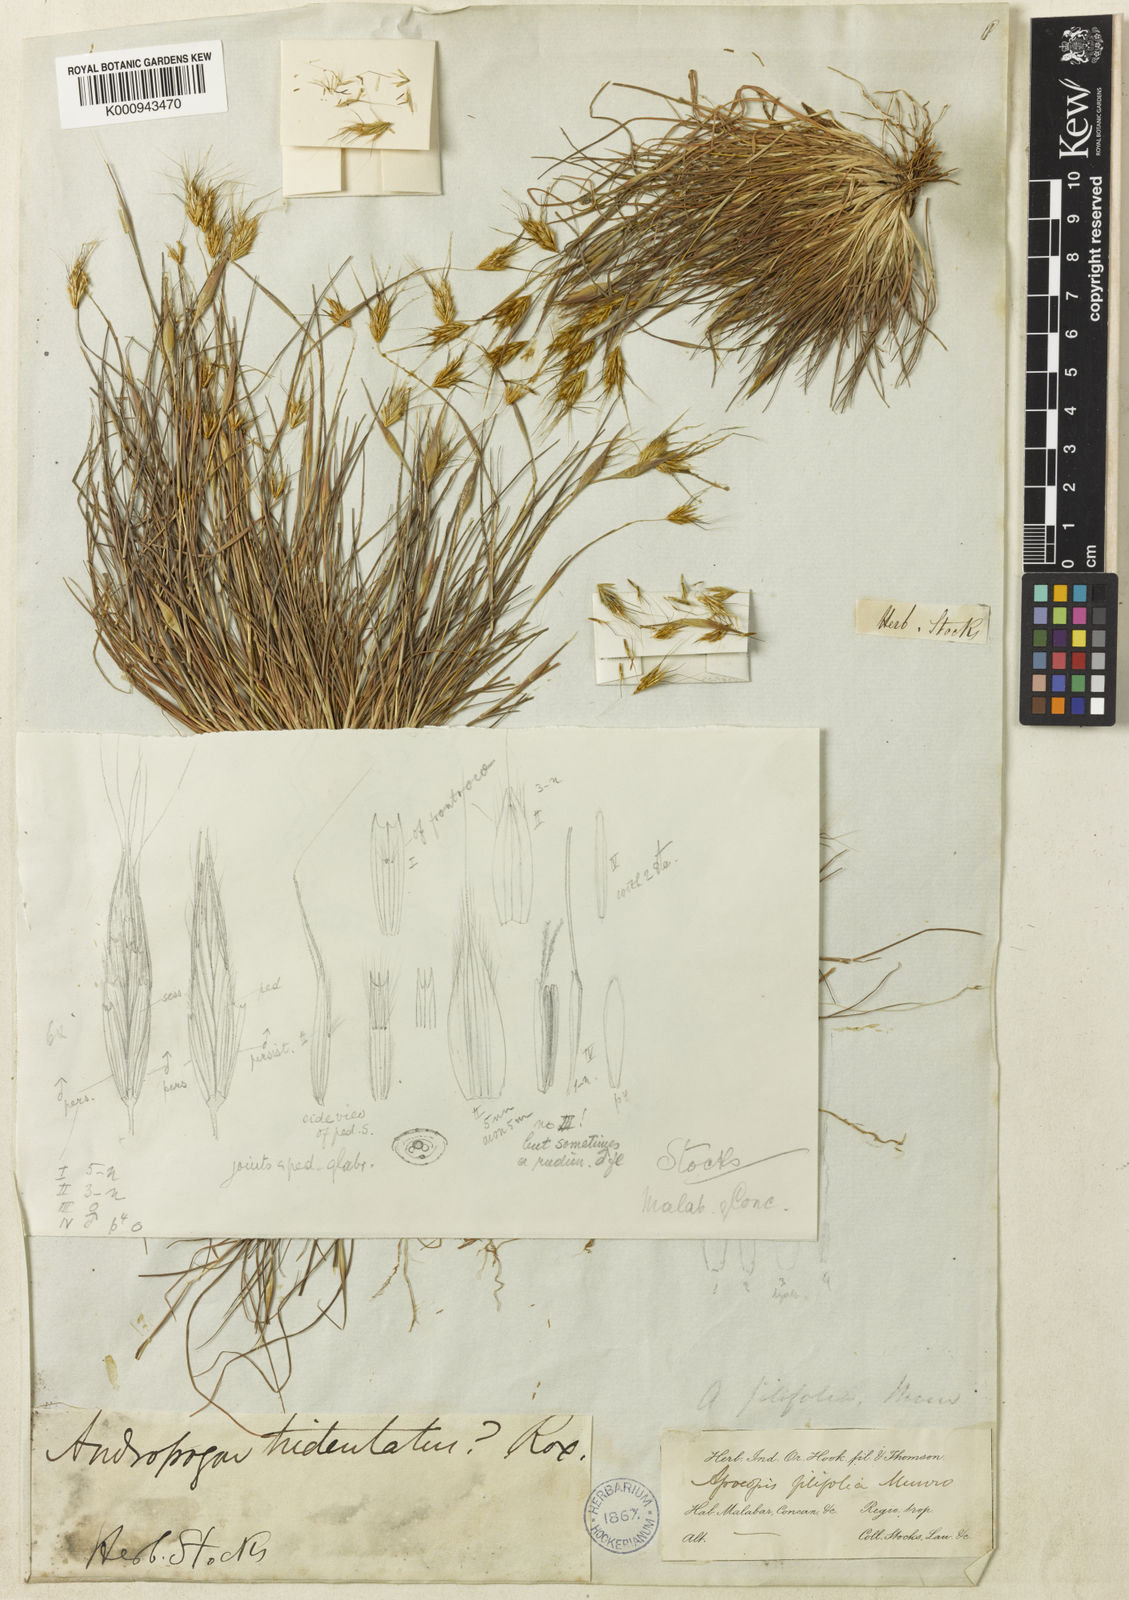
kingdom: Plantae
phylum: Tracheophyta
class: Liliopsida
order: Poales
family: Poaceae
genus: Lophopogon
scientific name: Lophopogon tridentatus
